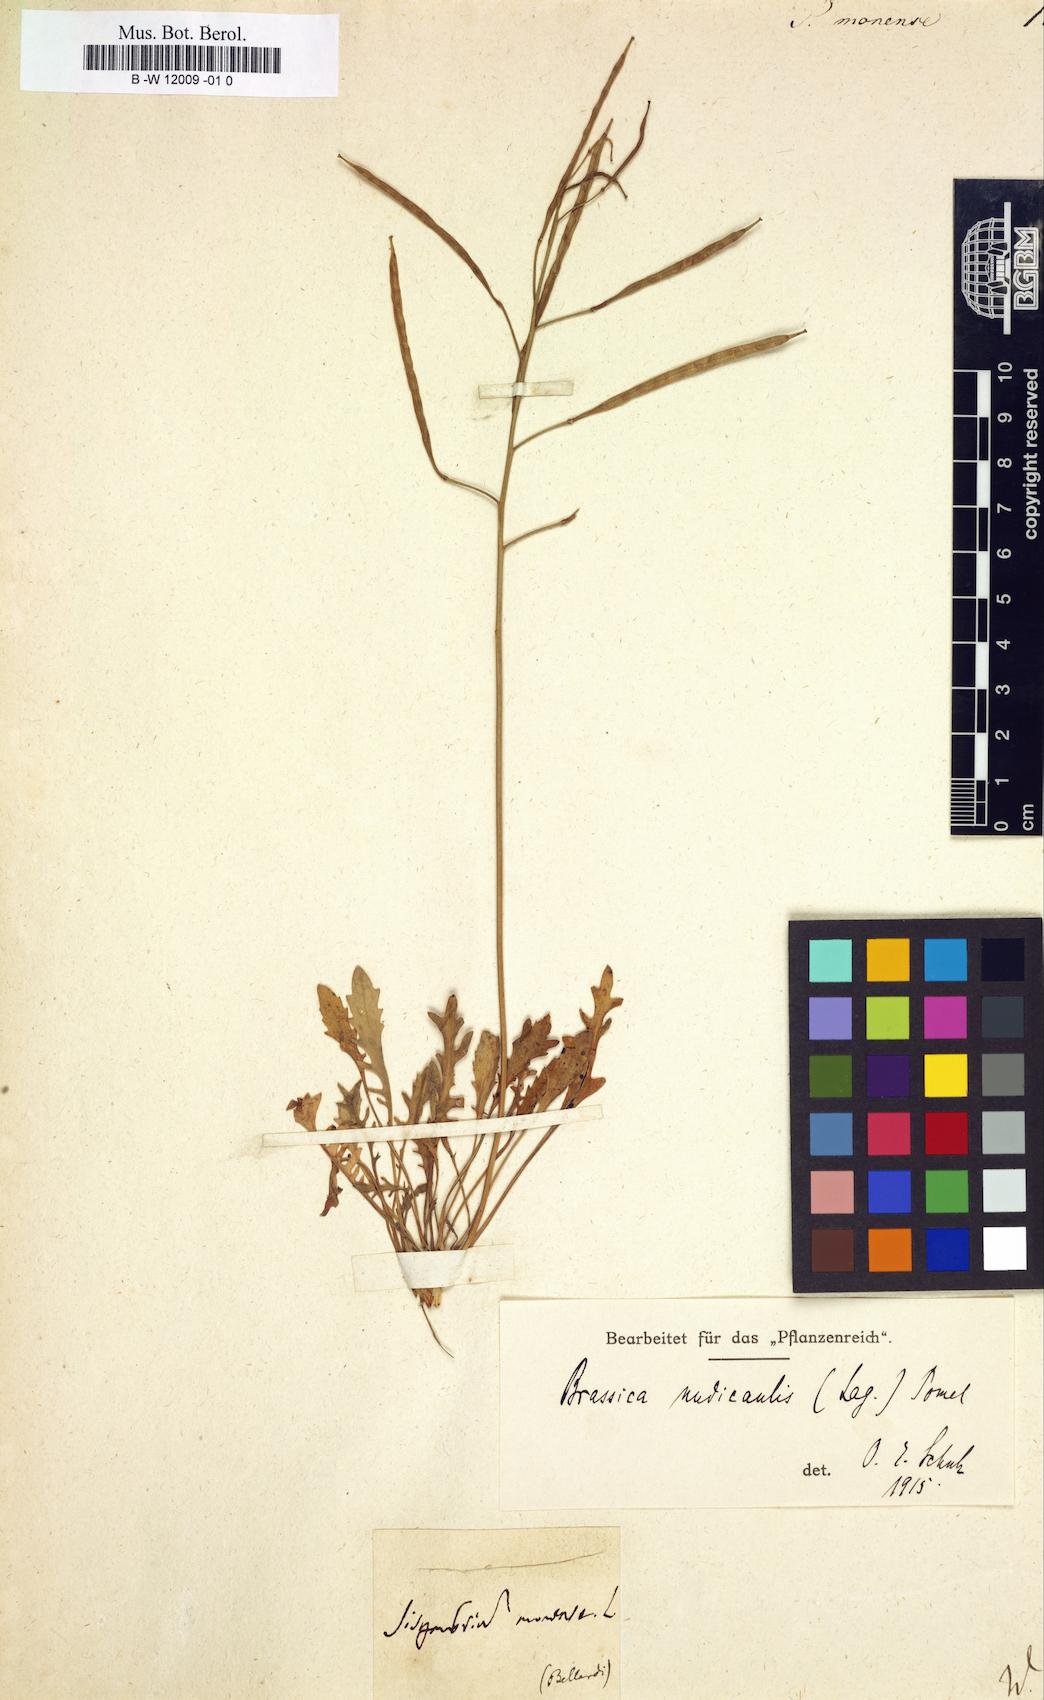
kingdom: Plantae
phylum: Tracheophyta
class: Magnoliopsida
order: Brassicales
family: Brassicaceae
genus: Sisymbrium
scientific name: Sisymbrium monense
